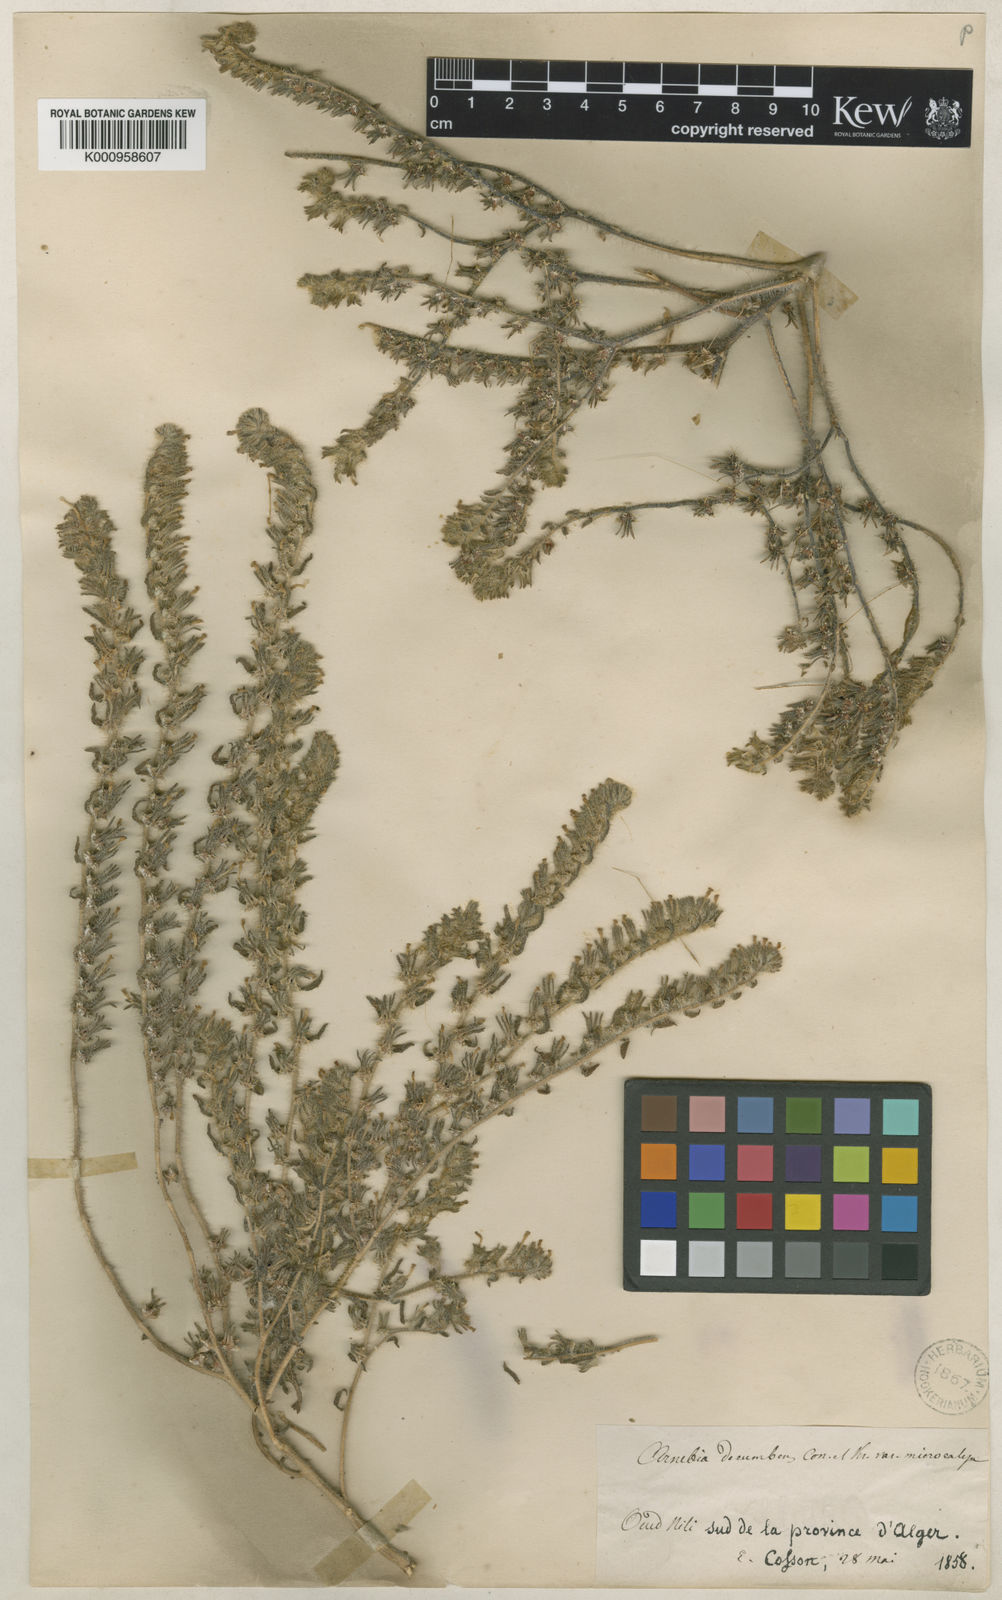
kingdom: Plantae
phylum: Tracheophyta
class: Magnoliopsida
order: Boraginales
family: Boraginaceae
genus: Arnebia
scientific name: Arnebia decumbens
